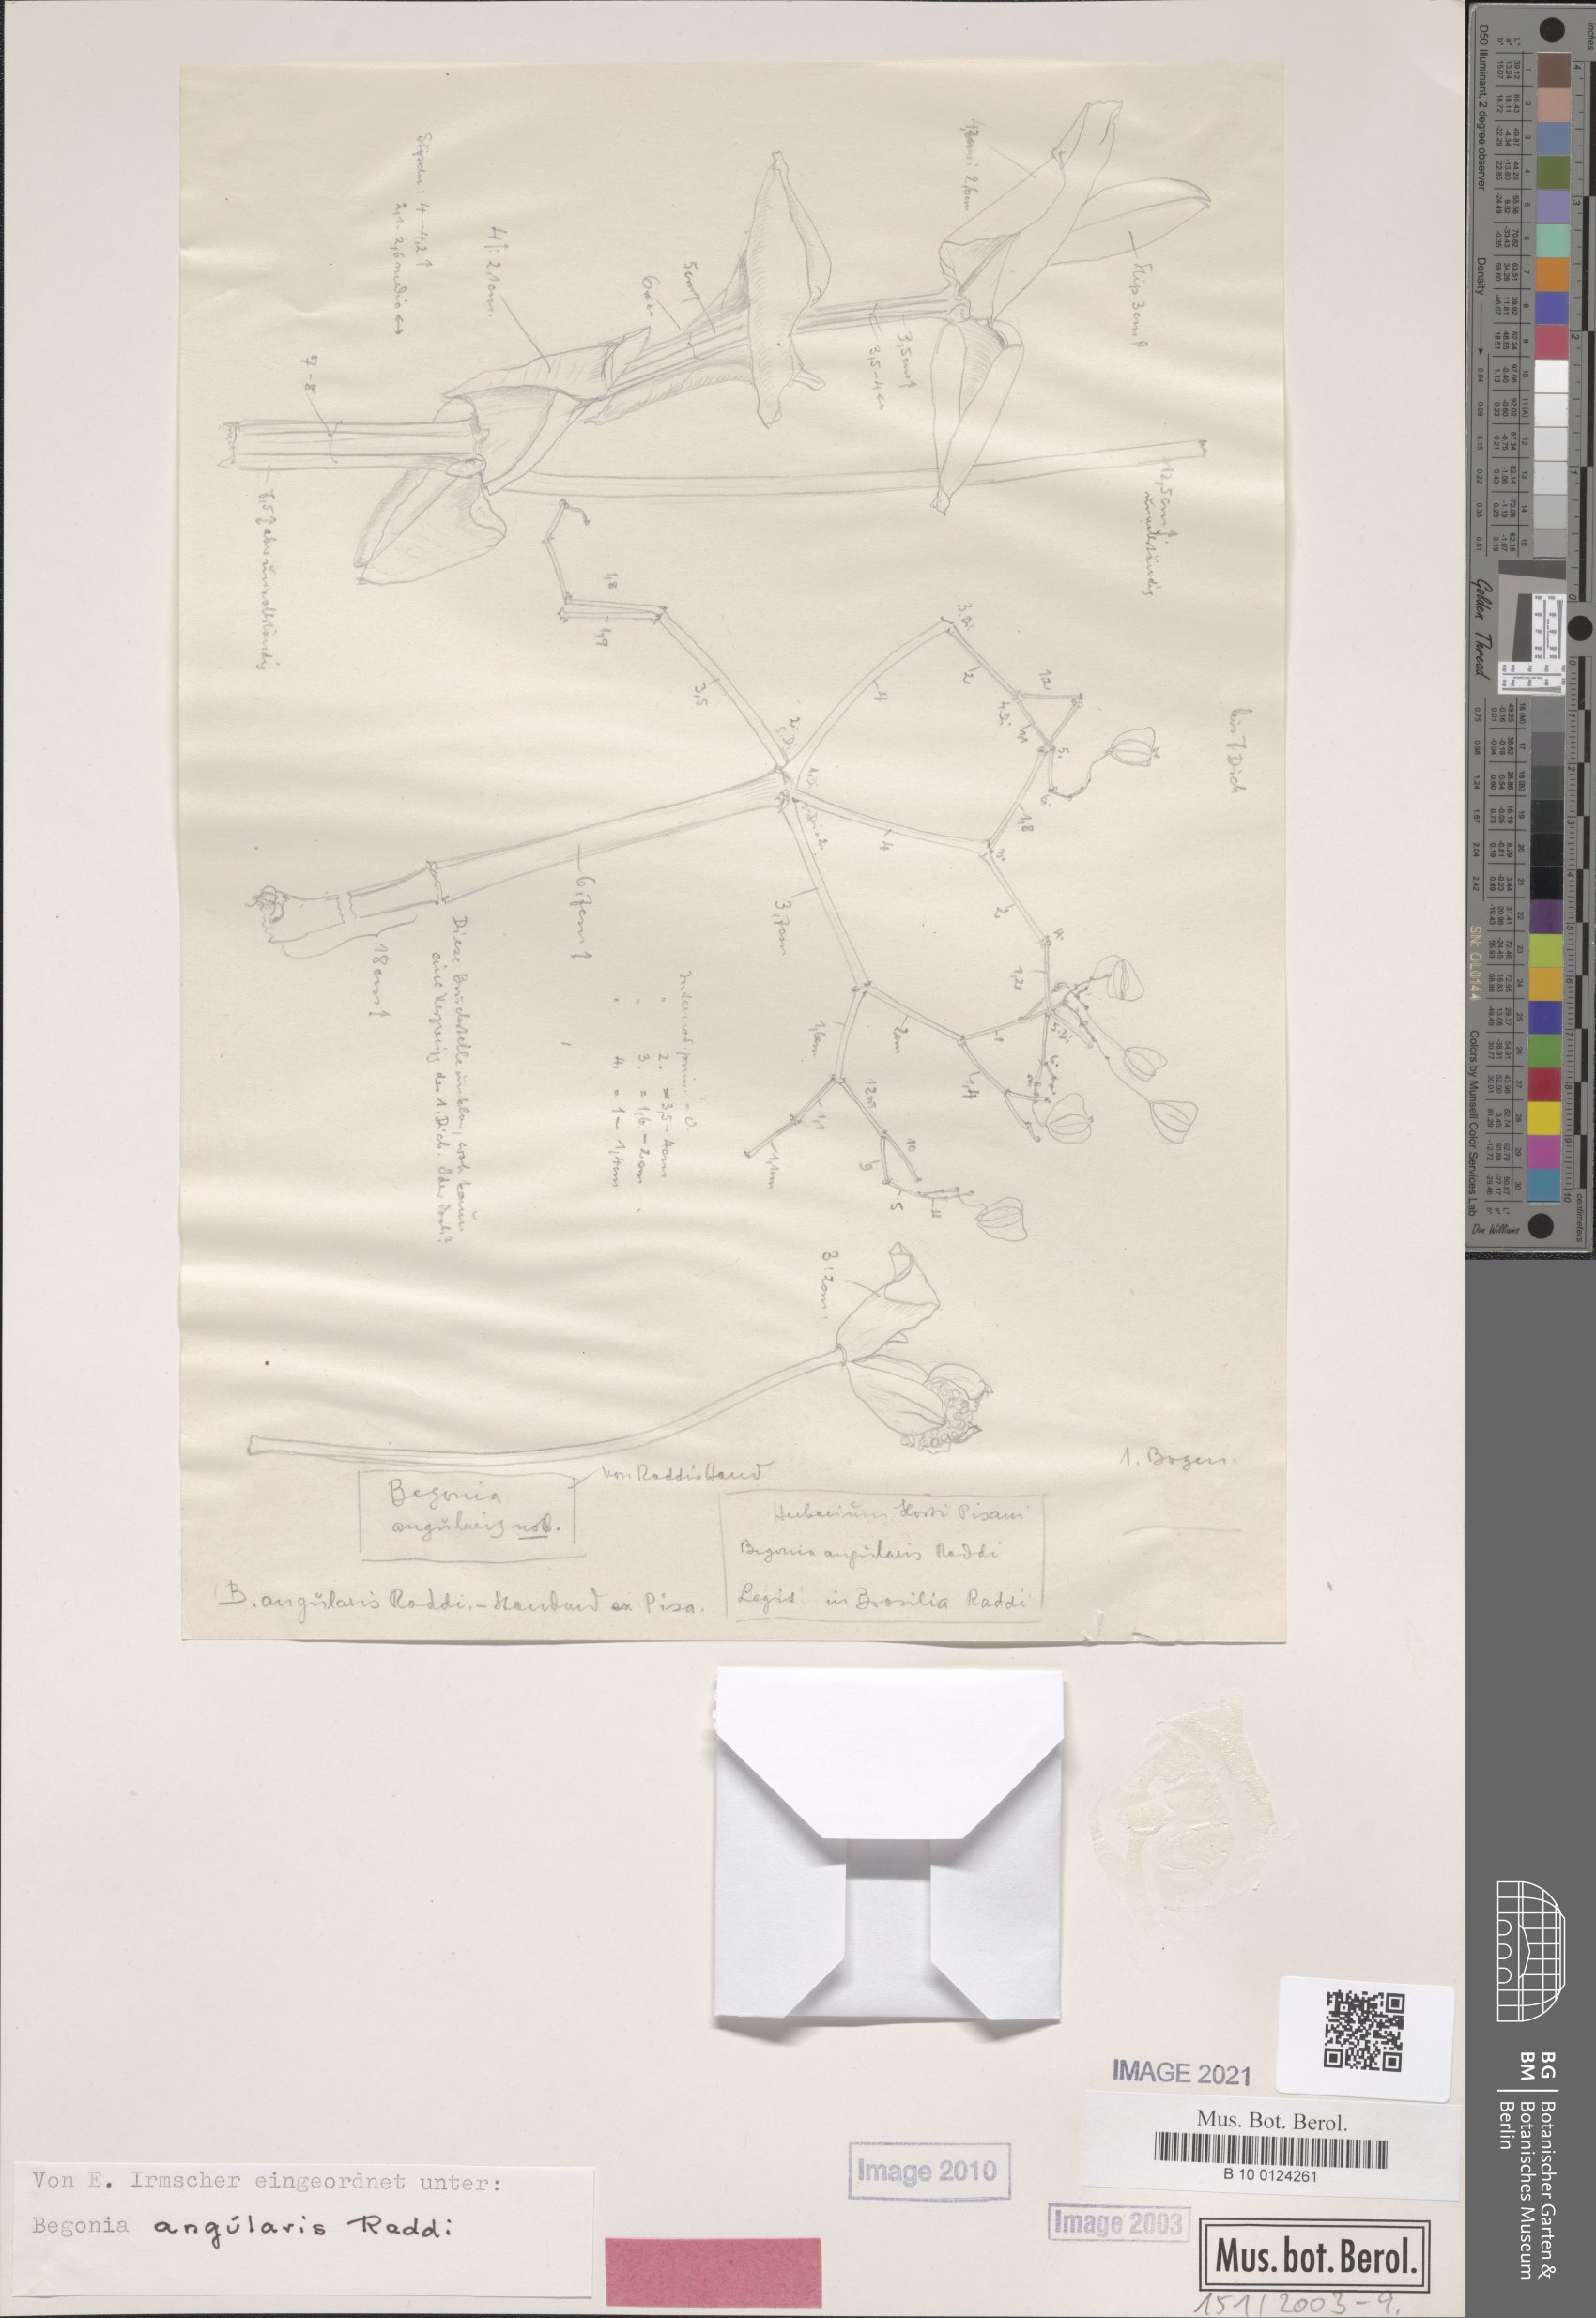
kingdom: Plantae
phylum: Tracheophyta
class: Magnoliopsida
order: Cucurbitales
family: Begoniaceae
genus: Begonia
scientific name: Begonia angularis
